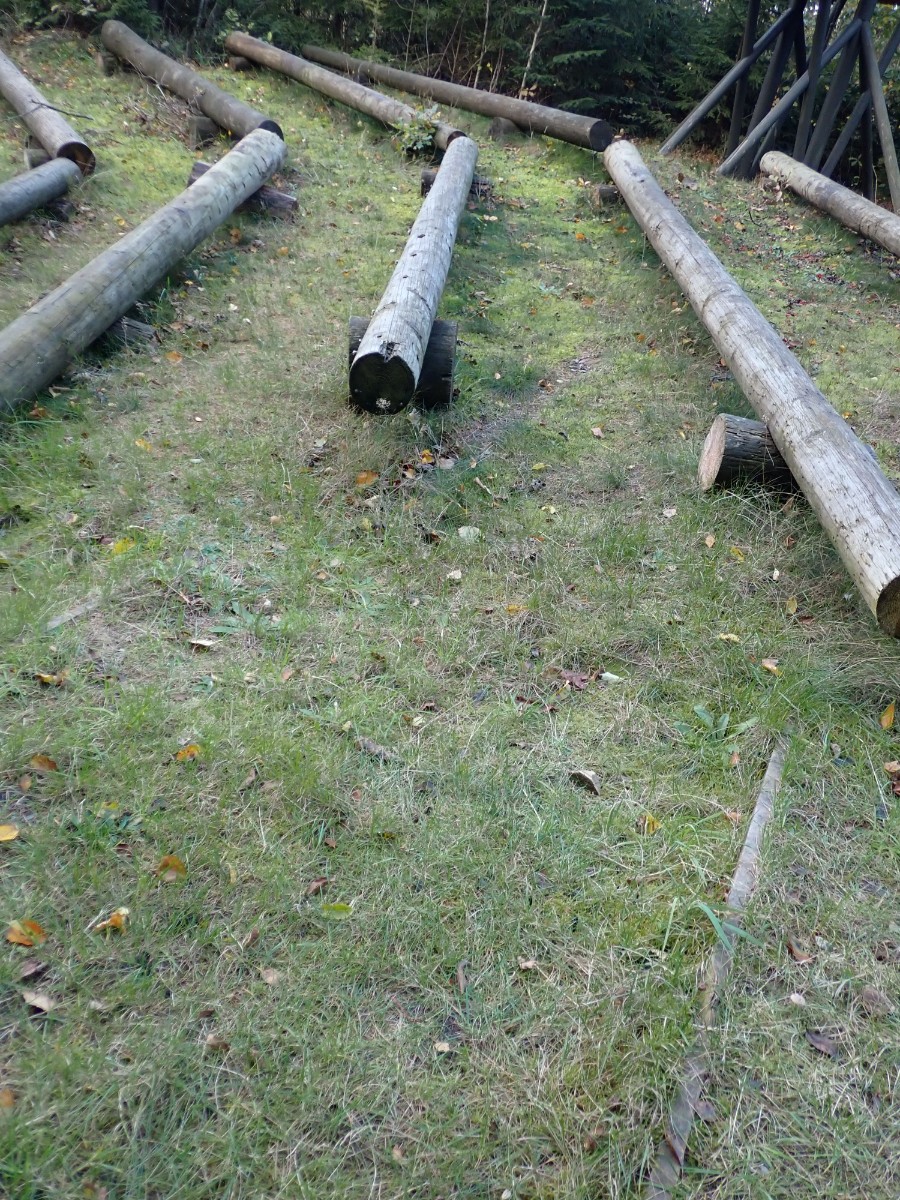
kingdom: Fungi
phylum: Ascomycota
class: Geoglossomycetes
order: Geoglossales
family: Geoglossaceae
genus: Geoglossum
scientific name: Geoglossum
